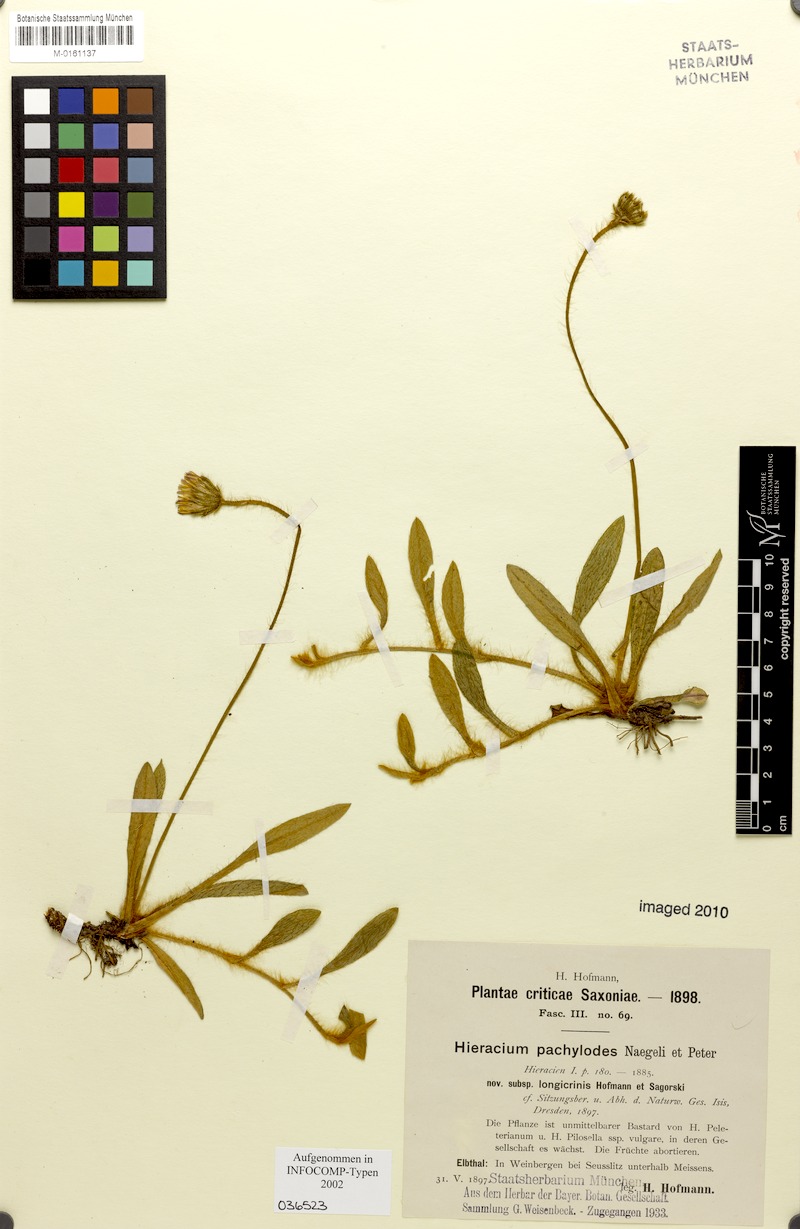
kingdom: Plantae
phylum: Tracheophyta
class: Magnoliopsida
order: Asterales
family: Asteraceae
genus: Pilosella
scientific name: Pilosella longisquama
